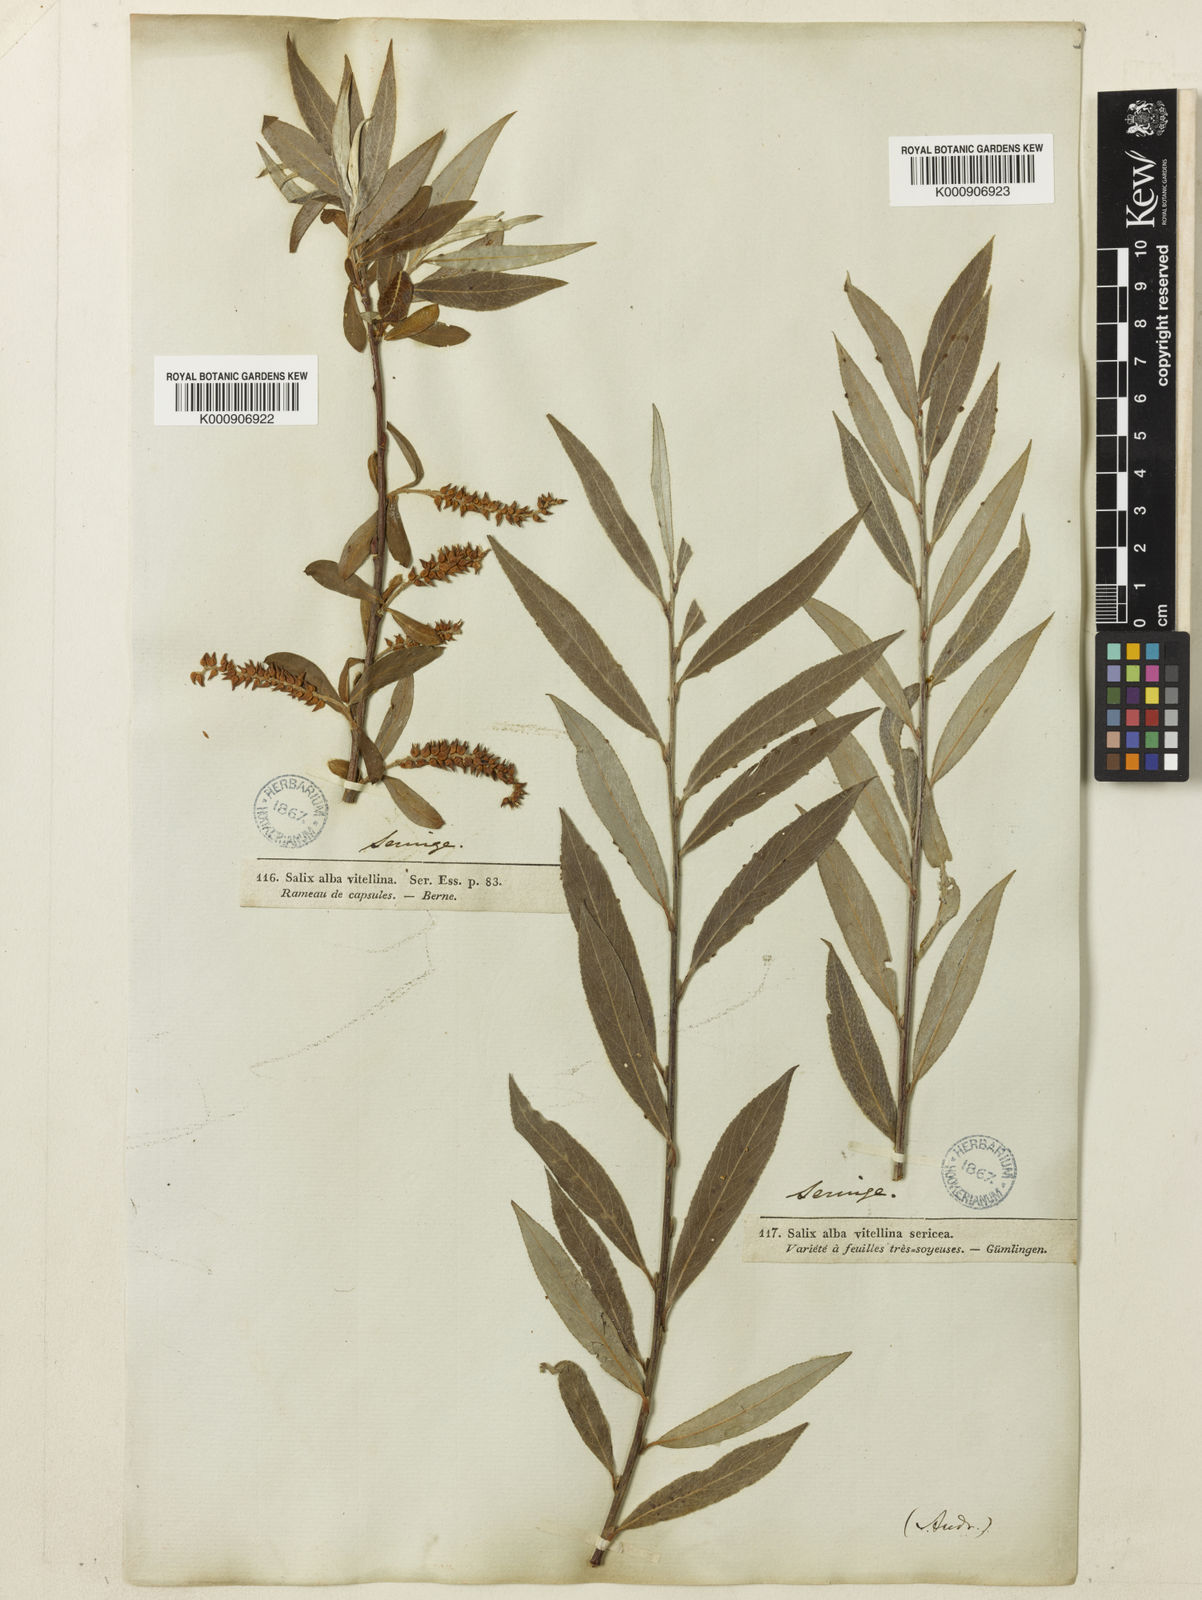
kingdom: Plantae
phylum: Tracheophyta
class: Magnoliopsida
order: Malpighiales
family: Salicaceae
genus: Salix
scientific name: Salix alba
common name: White willow
